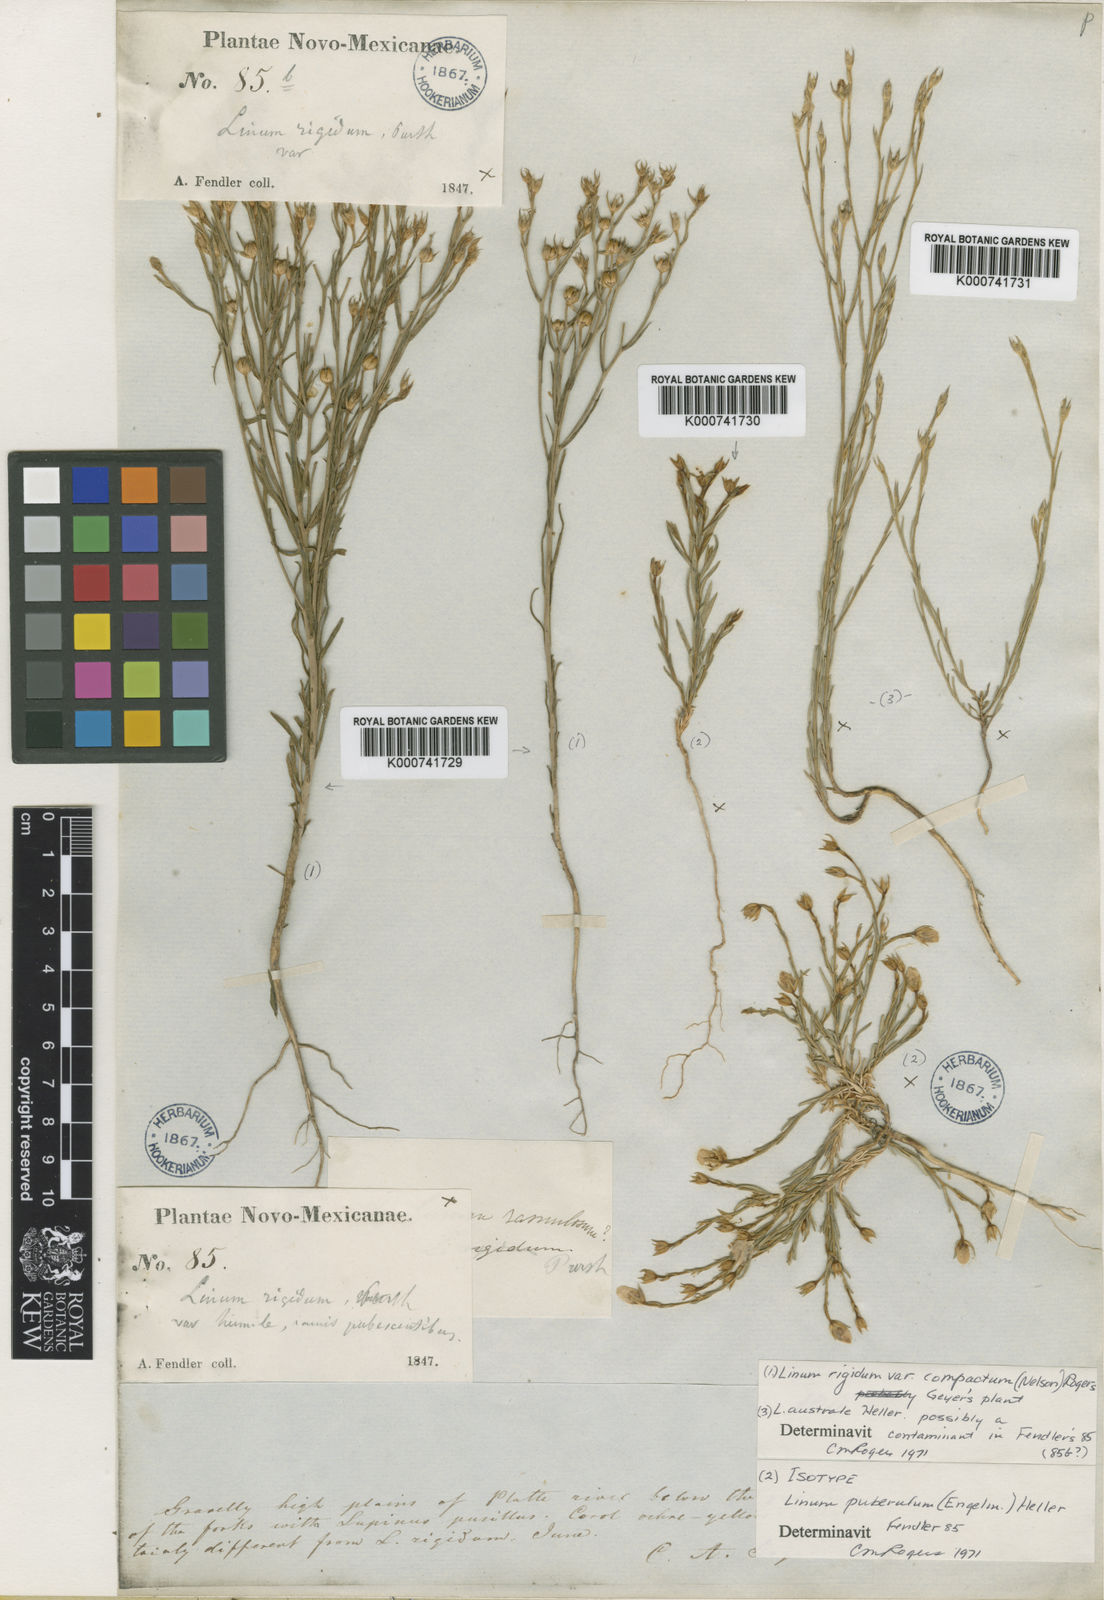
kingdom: Plantae
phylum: Tracheophyta
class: Magnoliopsida
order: Malpighiales
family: Linaceae
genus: Linum
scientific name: Linum puberulum
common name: Plains flax
